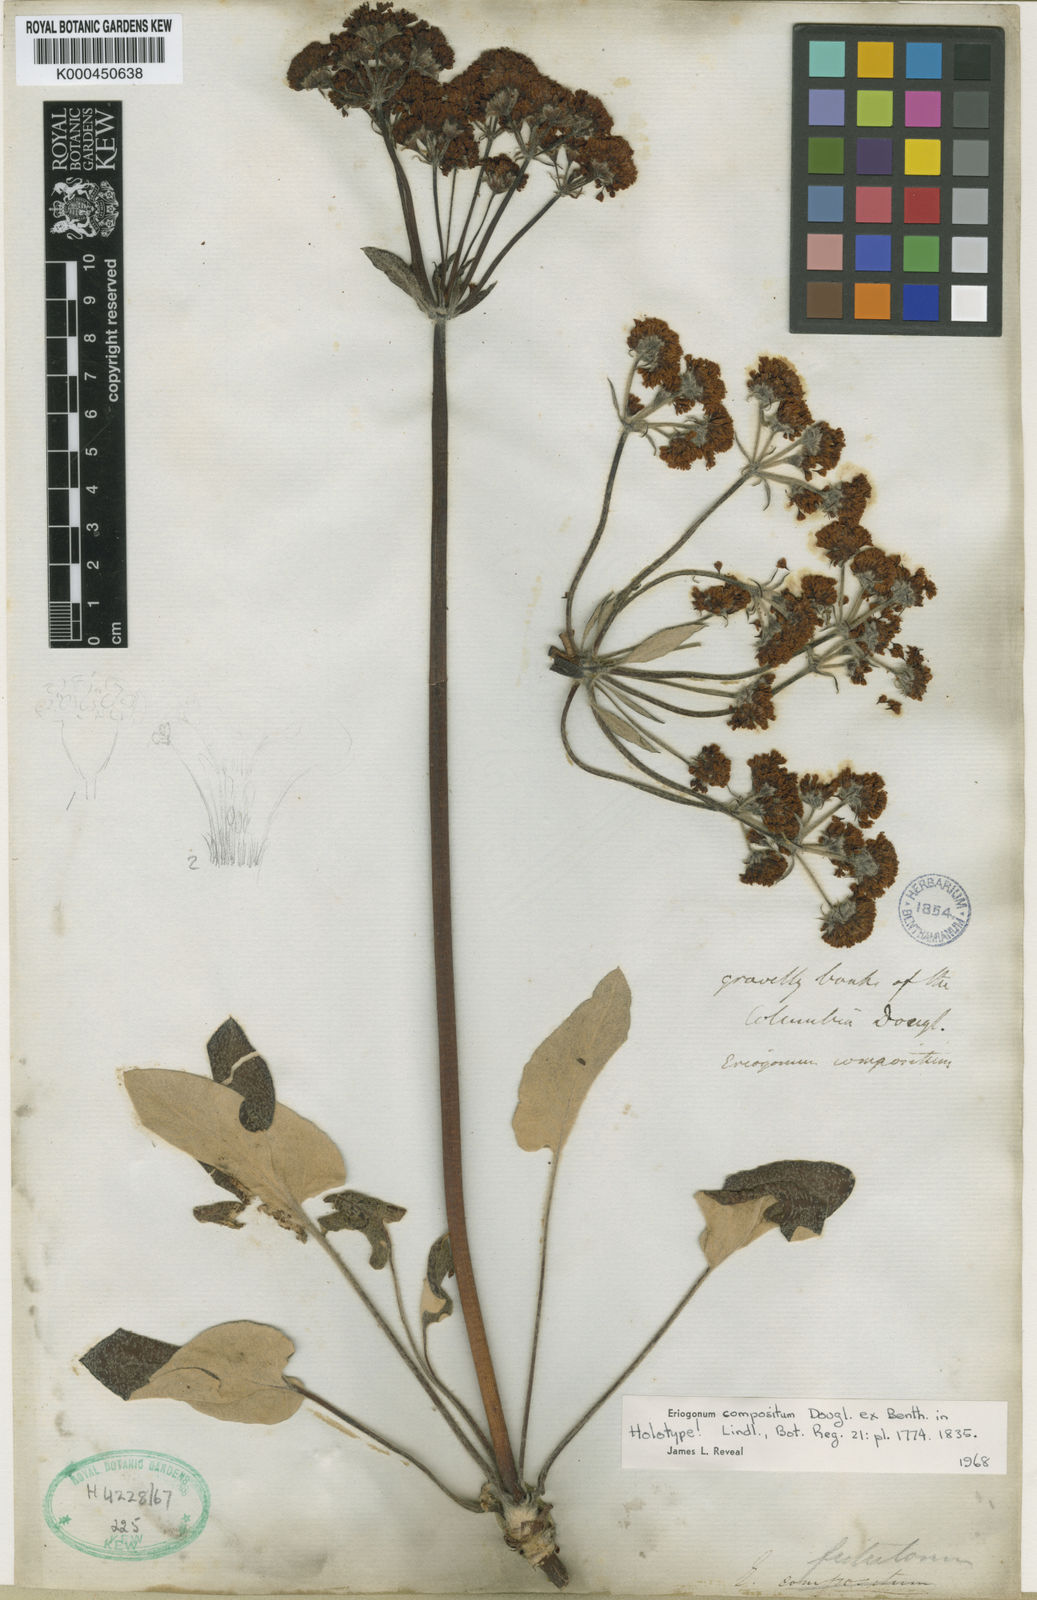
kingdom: Plantae
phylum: Tracheophyta
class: Magnoliopsida
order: Caryophyllales
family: Polygonaceae
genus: Eriogonum
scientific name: Eriogonum compositum
